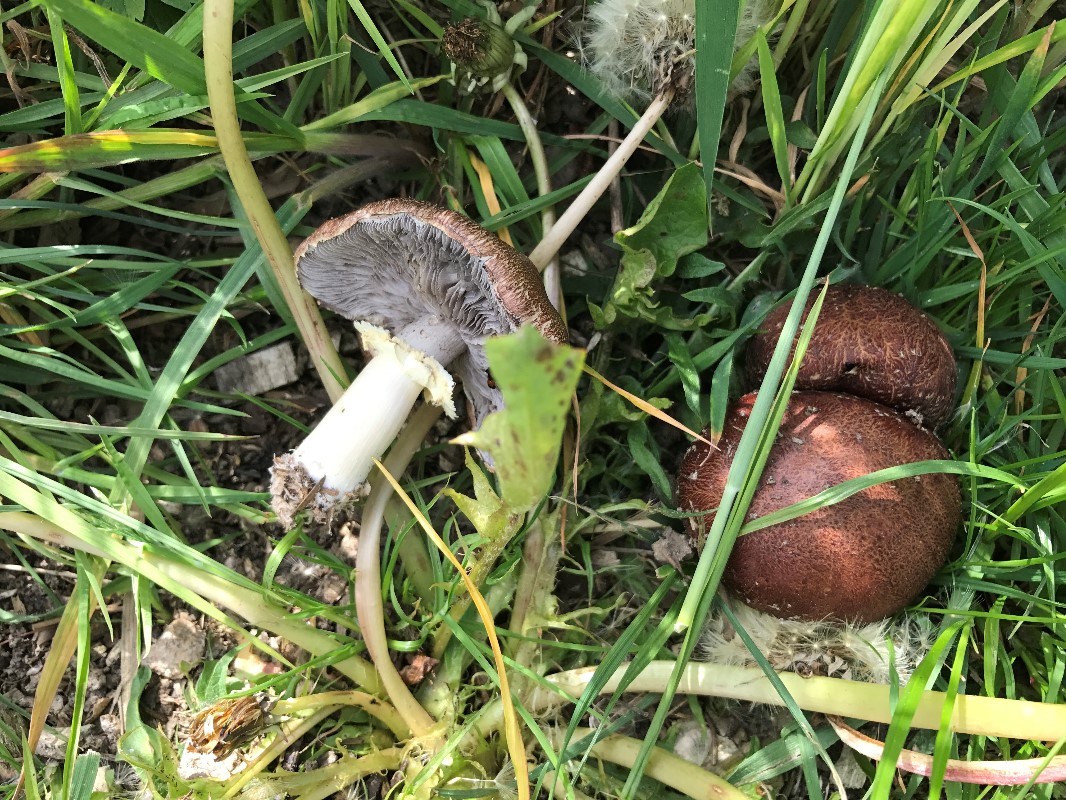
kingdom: Fungi
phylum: Basidiomycota
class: Agaricomycetes
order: Agaricales
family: Strophariaceae
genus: Stropharia
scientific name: Stropharia rugosoannulata
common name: rødbrun bredblad
